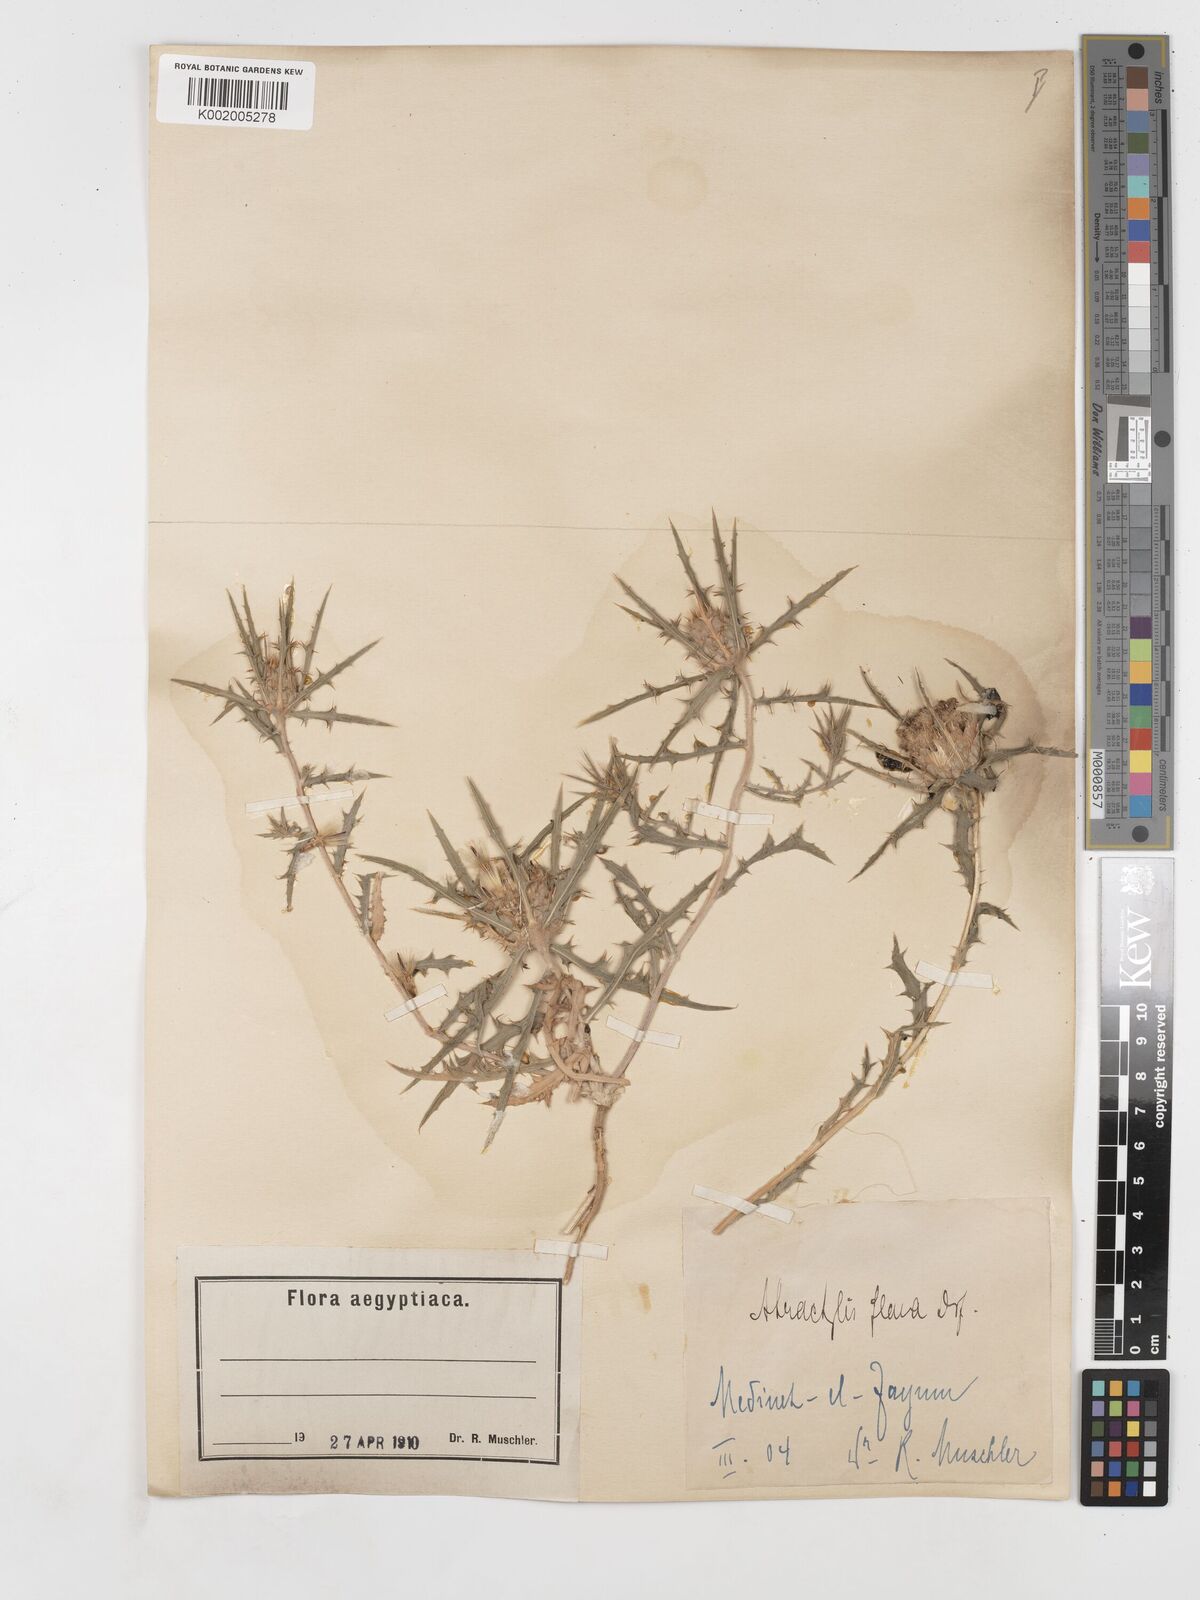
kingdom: Plantae
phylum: Tracheophyta
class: Magnoliopsida
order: Asterales
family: Asteraceae
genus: Atractylis
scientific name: Atractylis carduus
